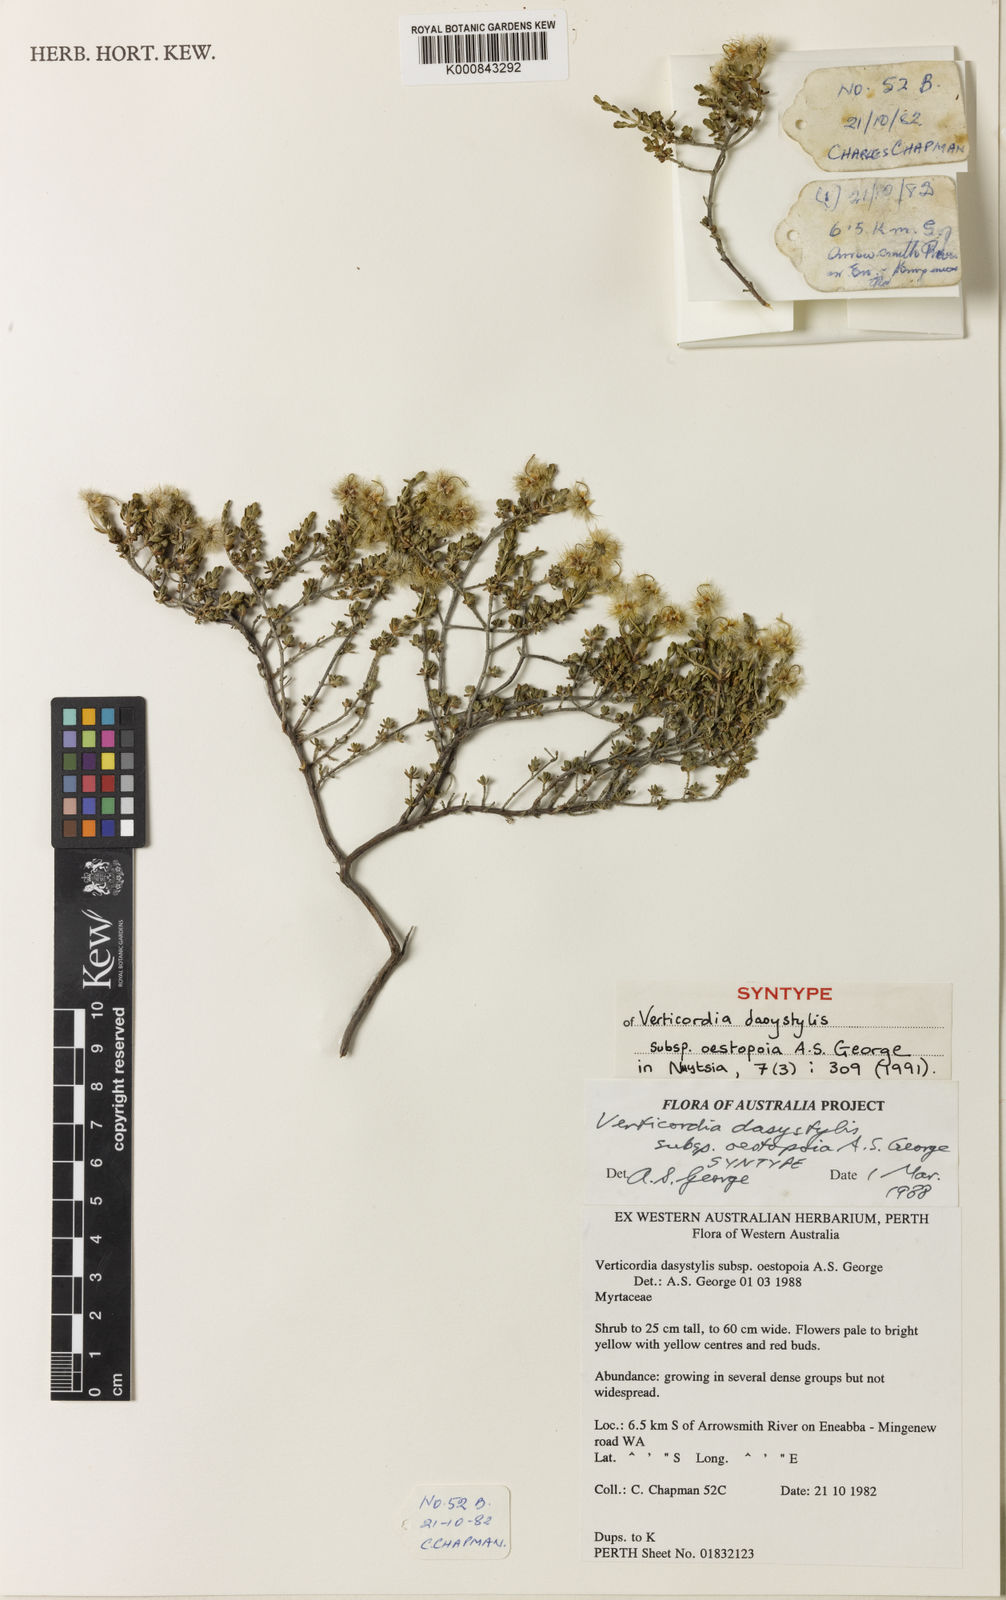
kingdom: Plantae
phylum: Tracheophyta
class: Magnoliopsida
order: Myrtales
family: Myrtaceae
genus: Verticordia
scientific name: Verticordia dasystylis
